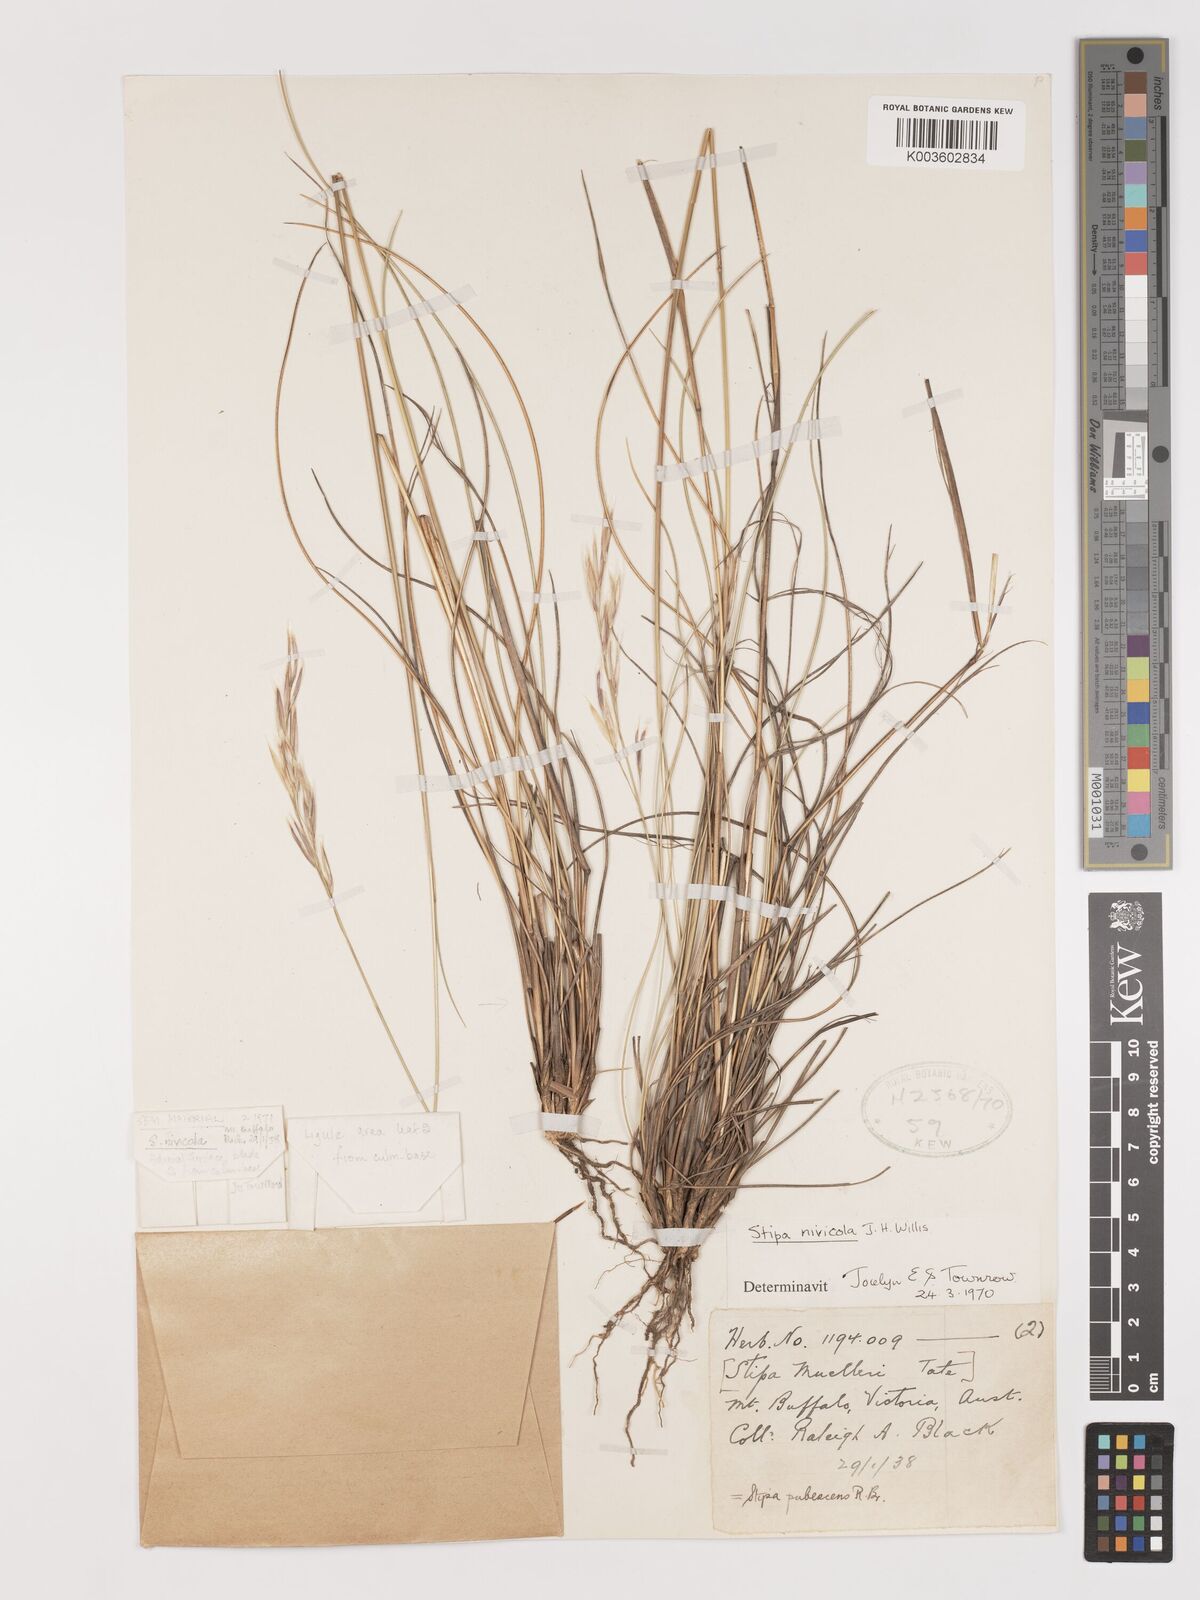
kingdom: Plantae
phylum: Tracheophyta
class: Liliopsida
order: Poales
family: Poaceae
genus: Austrostipa
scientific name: Austrostipa nivicola
